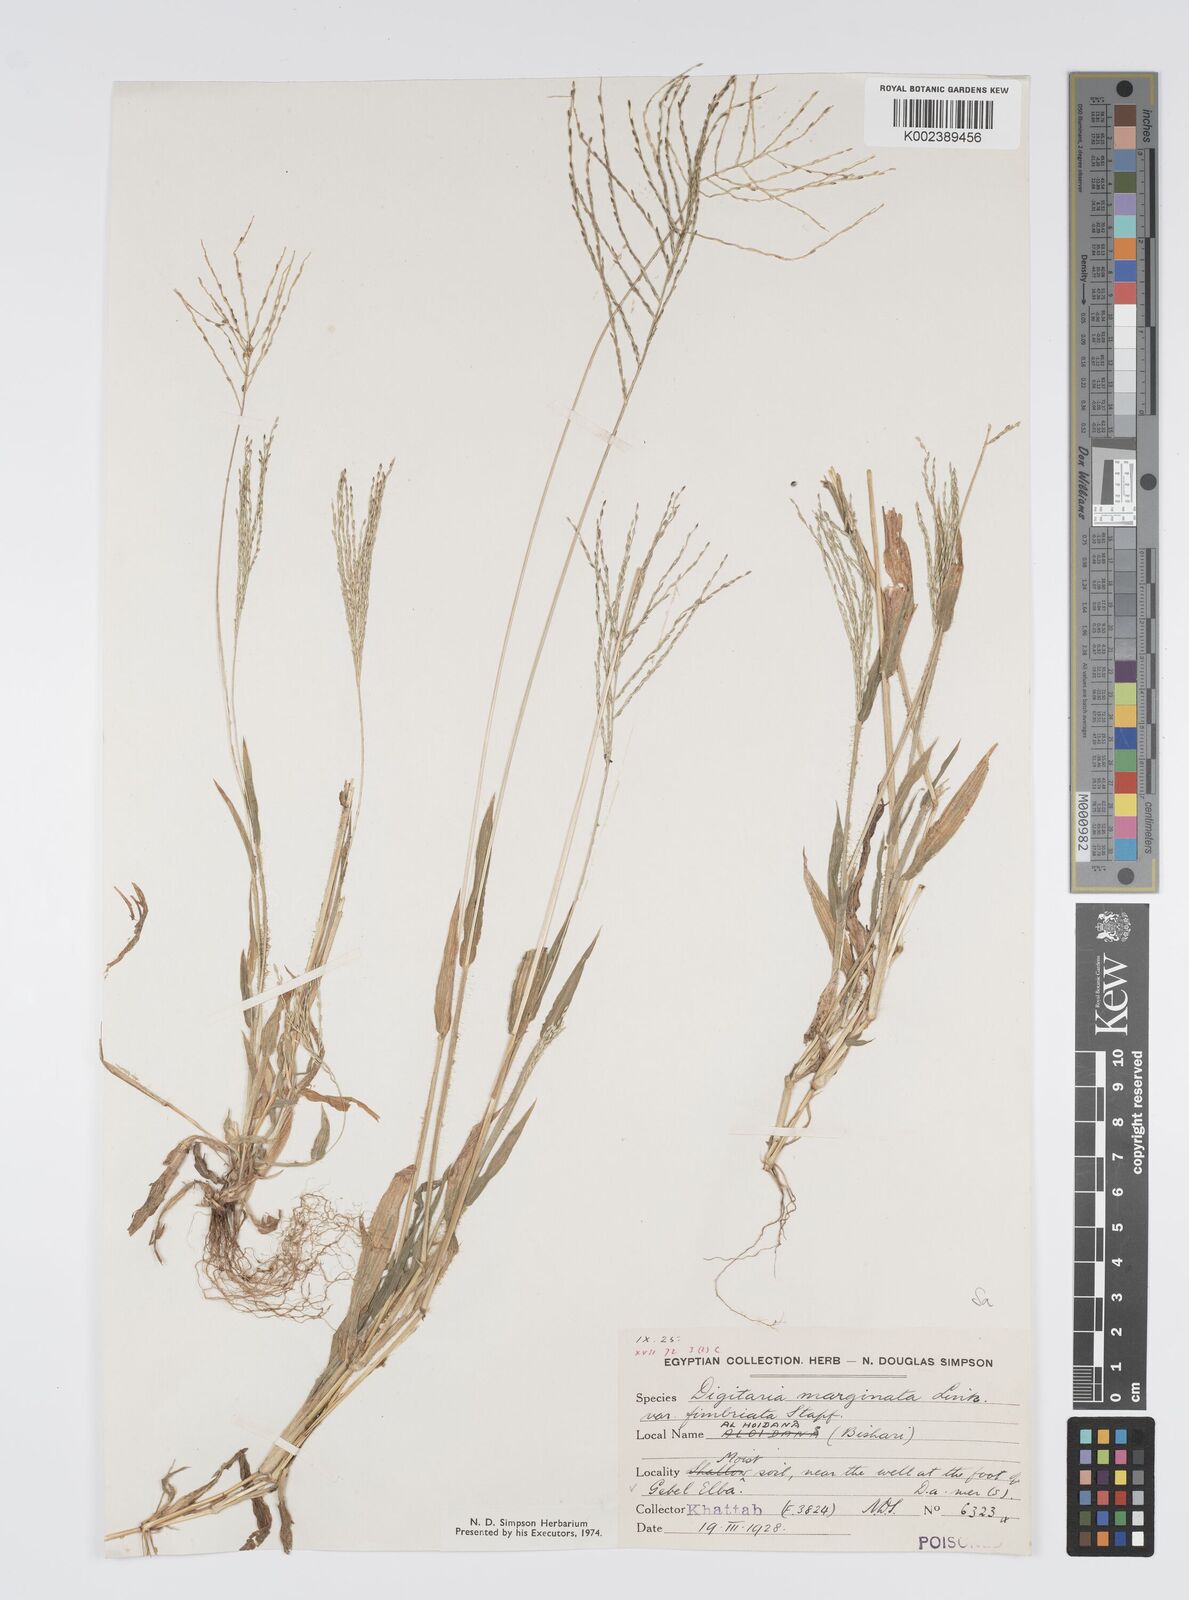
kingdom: Plantae
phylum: Tracheophyta
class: Liliopsida
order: Poales
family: Poaceae
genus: Digitaria
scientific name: Digitaria velutina
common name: Long-plume finger grass
